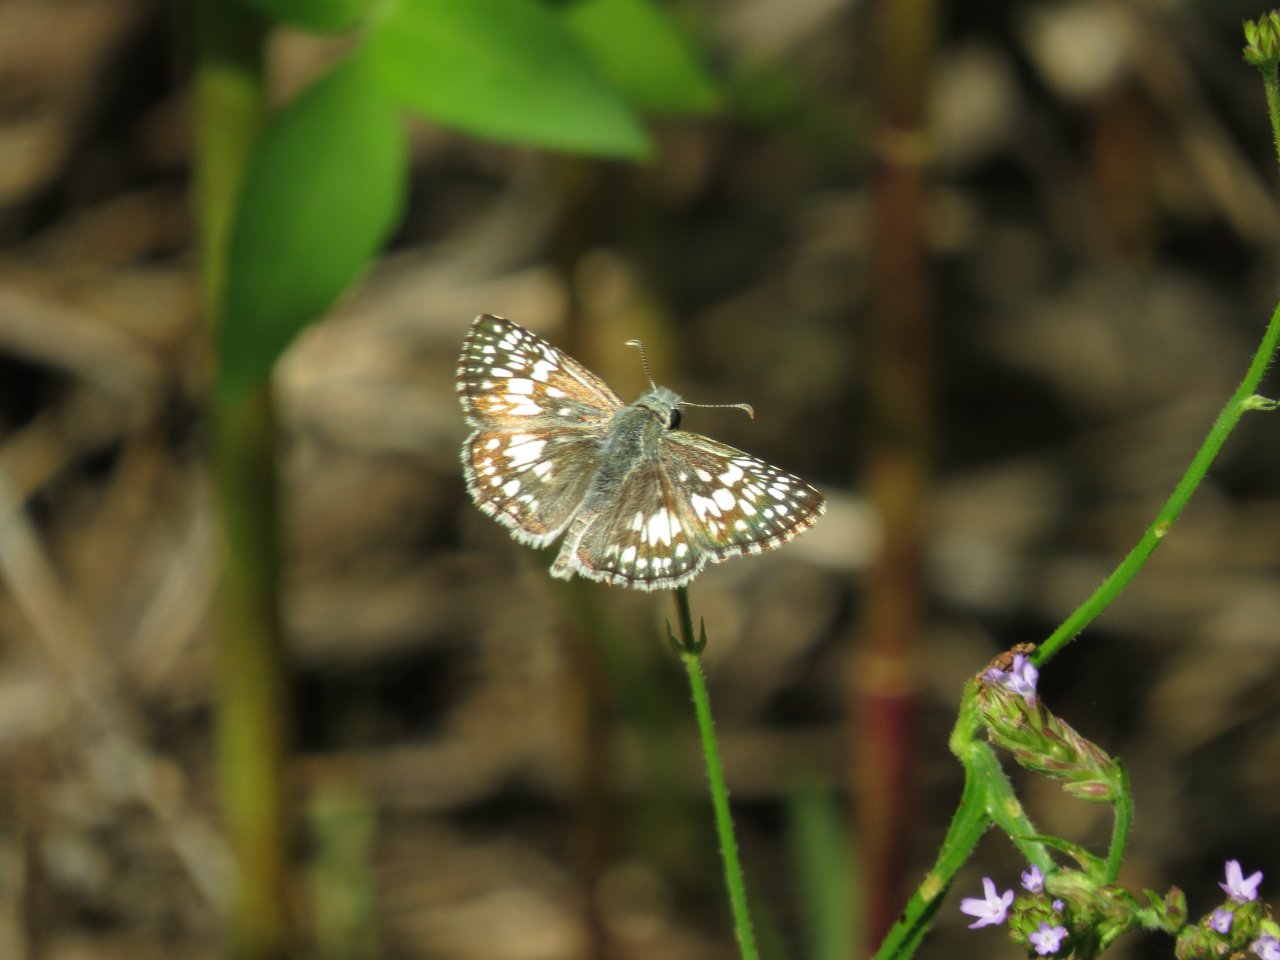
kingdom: Animalia
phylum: Arthropoda
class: Insecta
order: Lepidoptera
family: Hesperiidae
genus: Pyrgus
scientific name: Pyrgus communis
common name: White Checkered-Skipper
